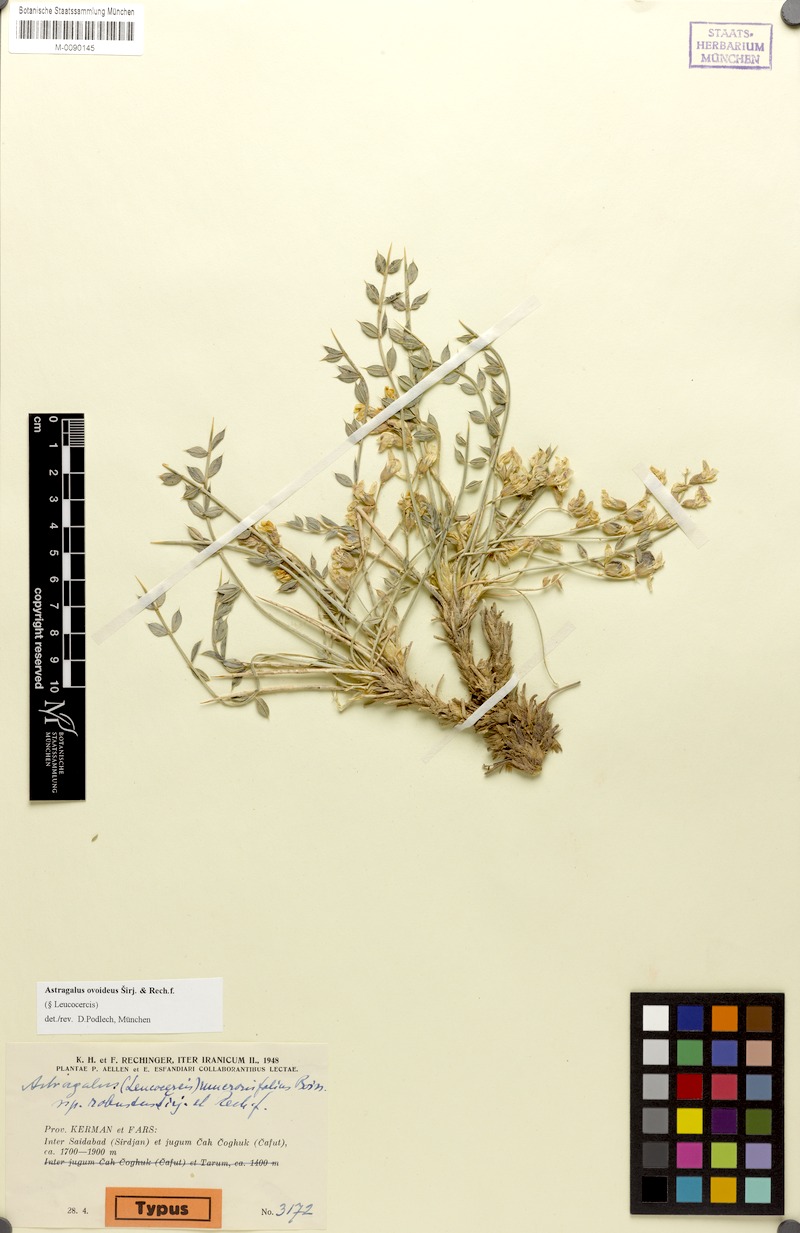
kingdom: Plantae
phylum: Tracheophyta
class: Magnoliopsida
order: Fabales
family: Fabaceae
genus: Astragalus
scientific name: Astragalus ovoideus
